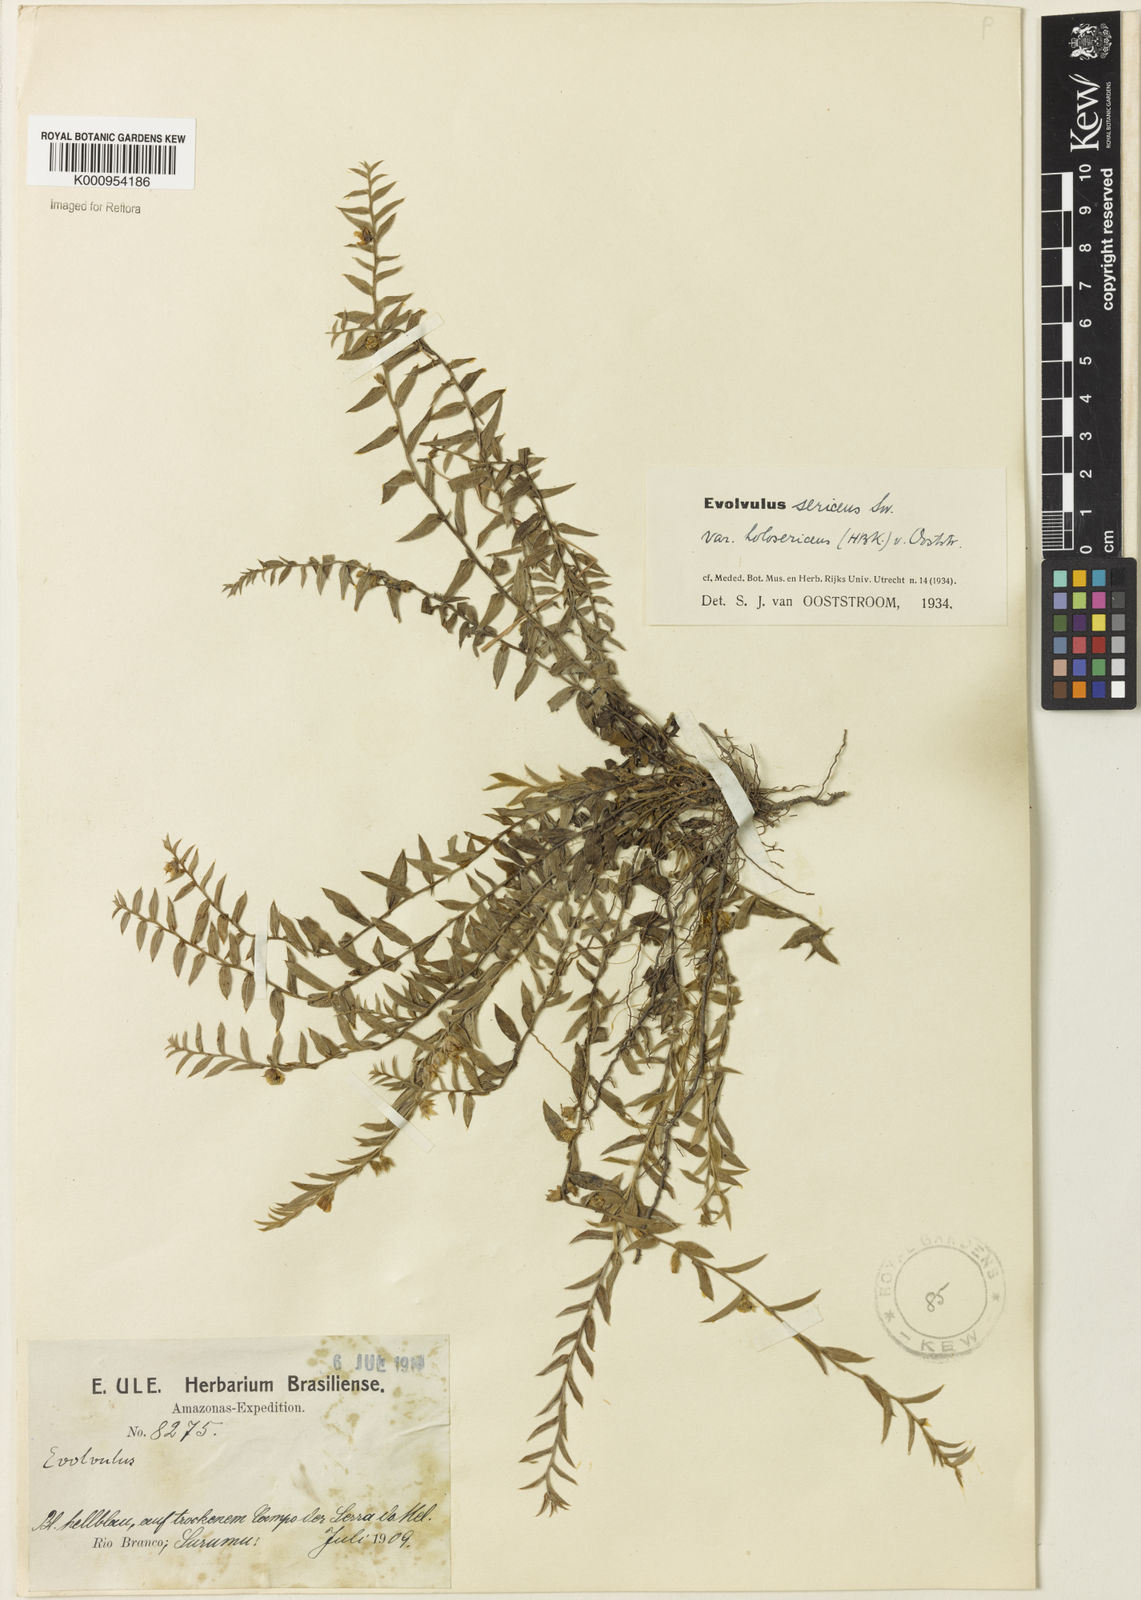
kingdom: Plantae
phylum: Tracheophyta
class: Magnoliopsida
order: Solanales
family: Convolvulaceae
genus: Evolvulus
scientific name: Evolvulus sericeus
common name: Blue dots
